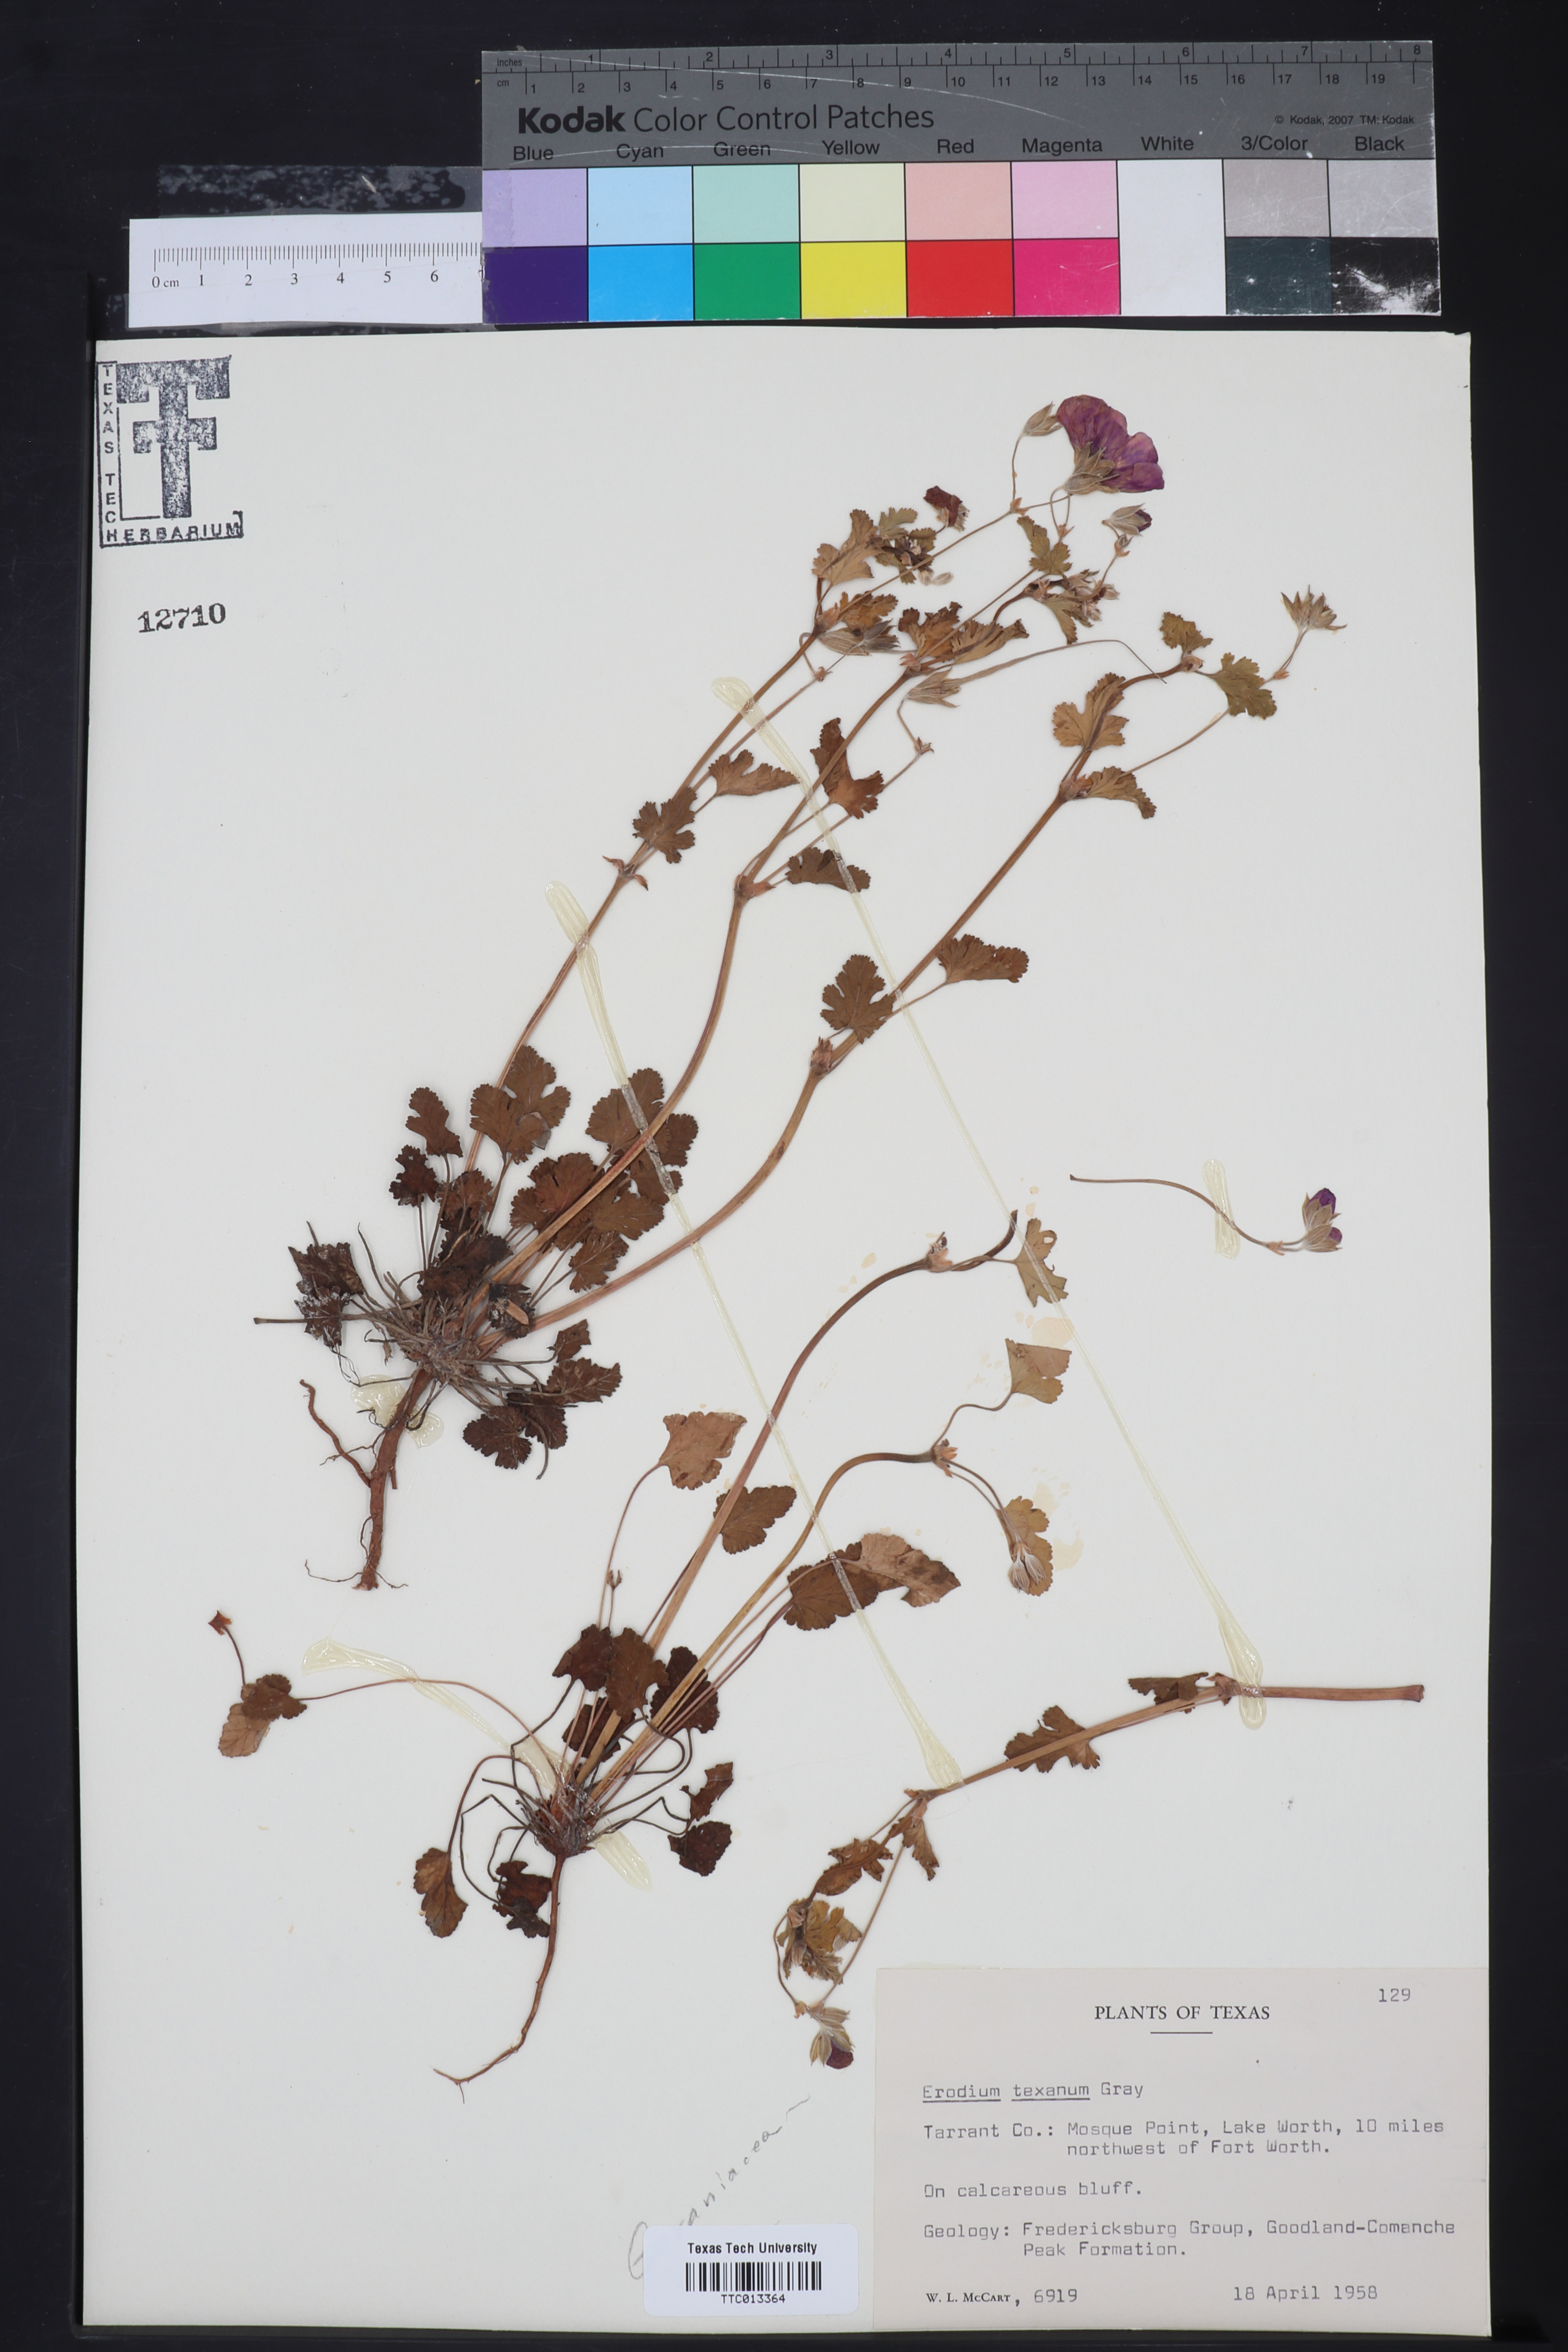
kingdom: Plantae
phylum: Tracheophyta
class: Magnoliopsida
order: Geraniales
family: Geraniaceae
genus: Erodium
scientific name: Erodium texanum
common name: Texas stork's-bill
